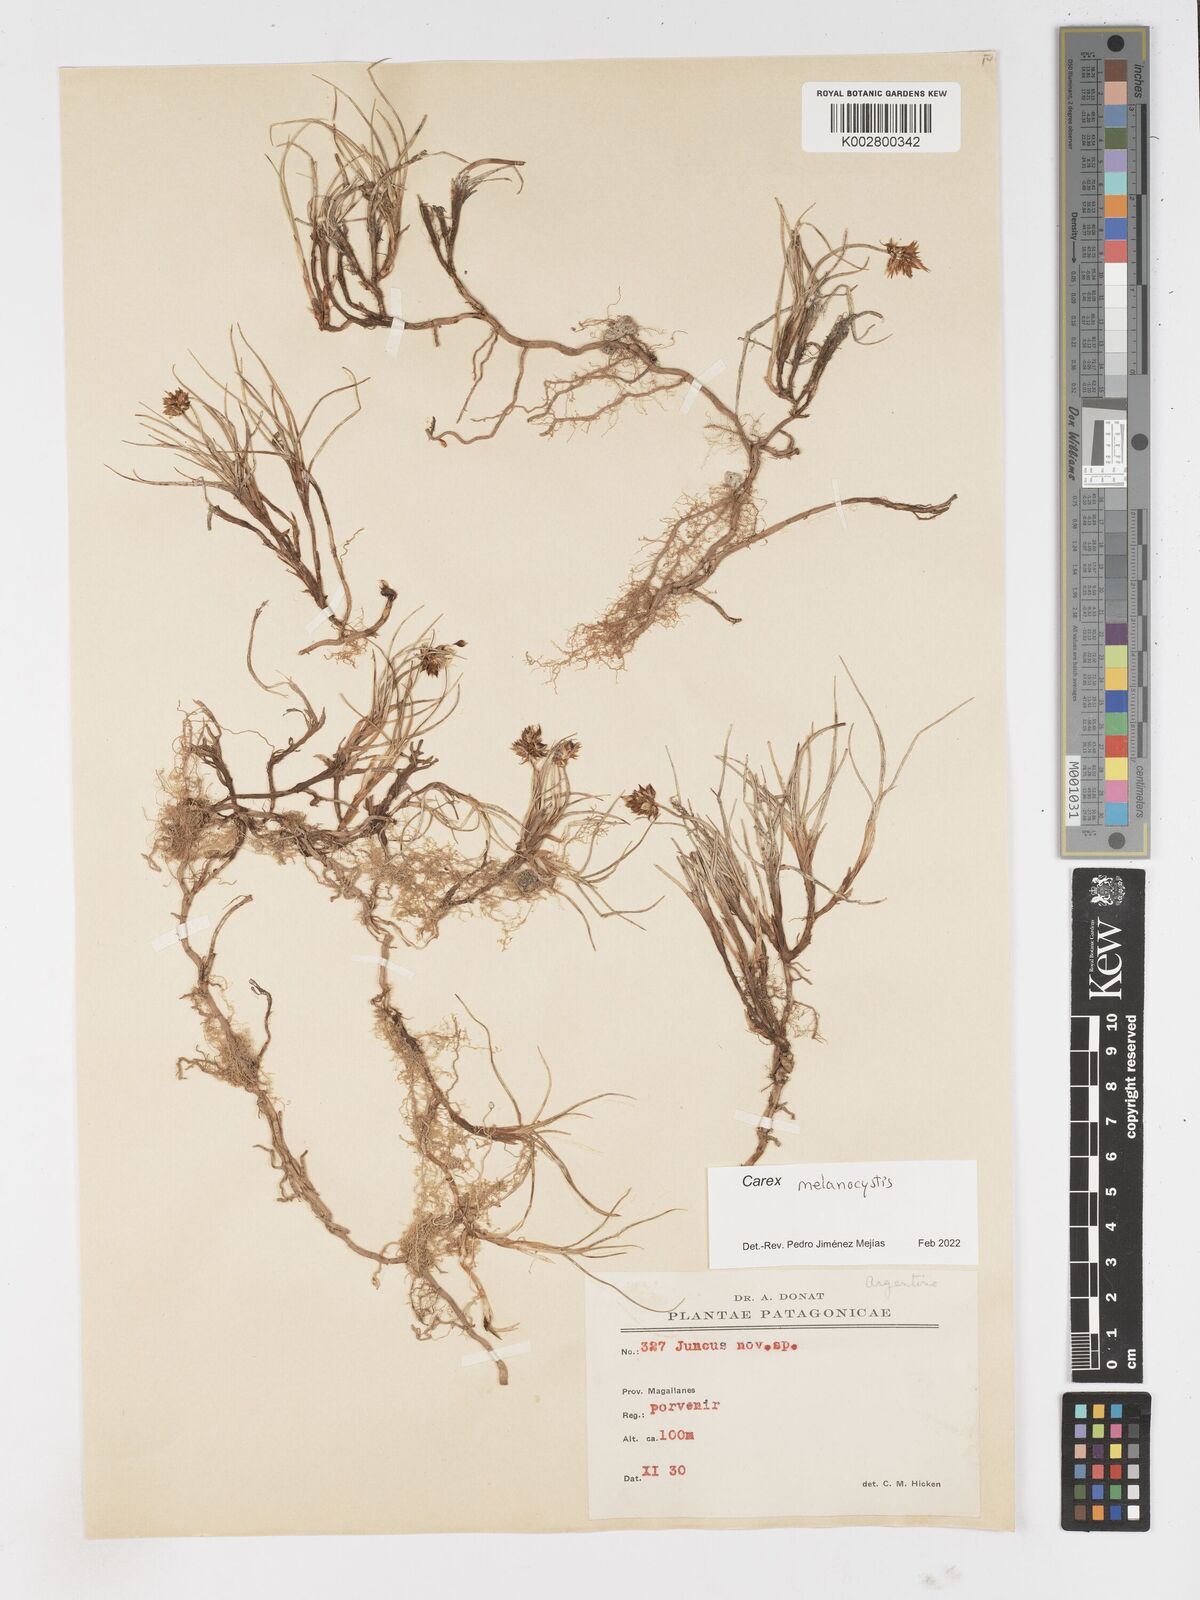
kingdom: Plantae
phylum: Tracheophyta
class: Liliopsida
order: Poales
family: Cyperaceae
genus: Carex
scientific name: Carex melanocystis
